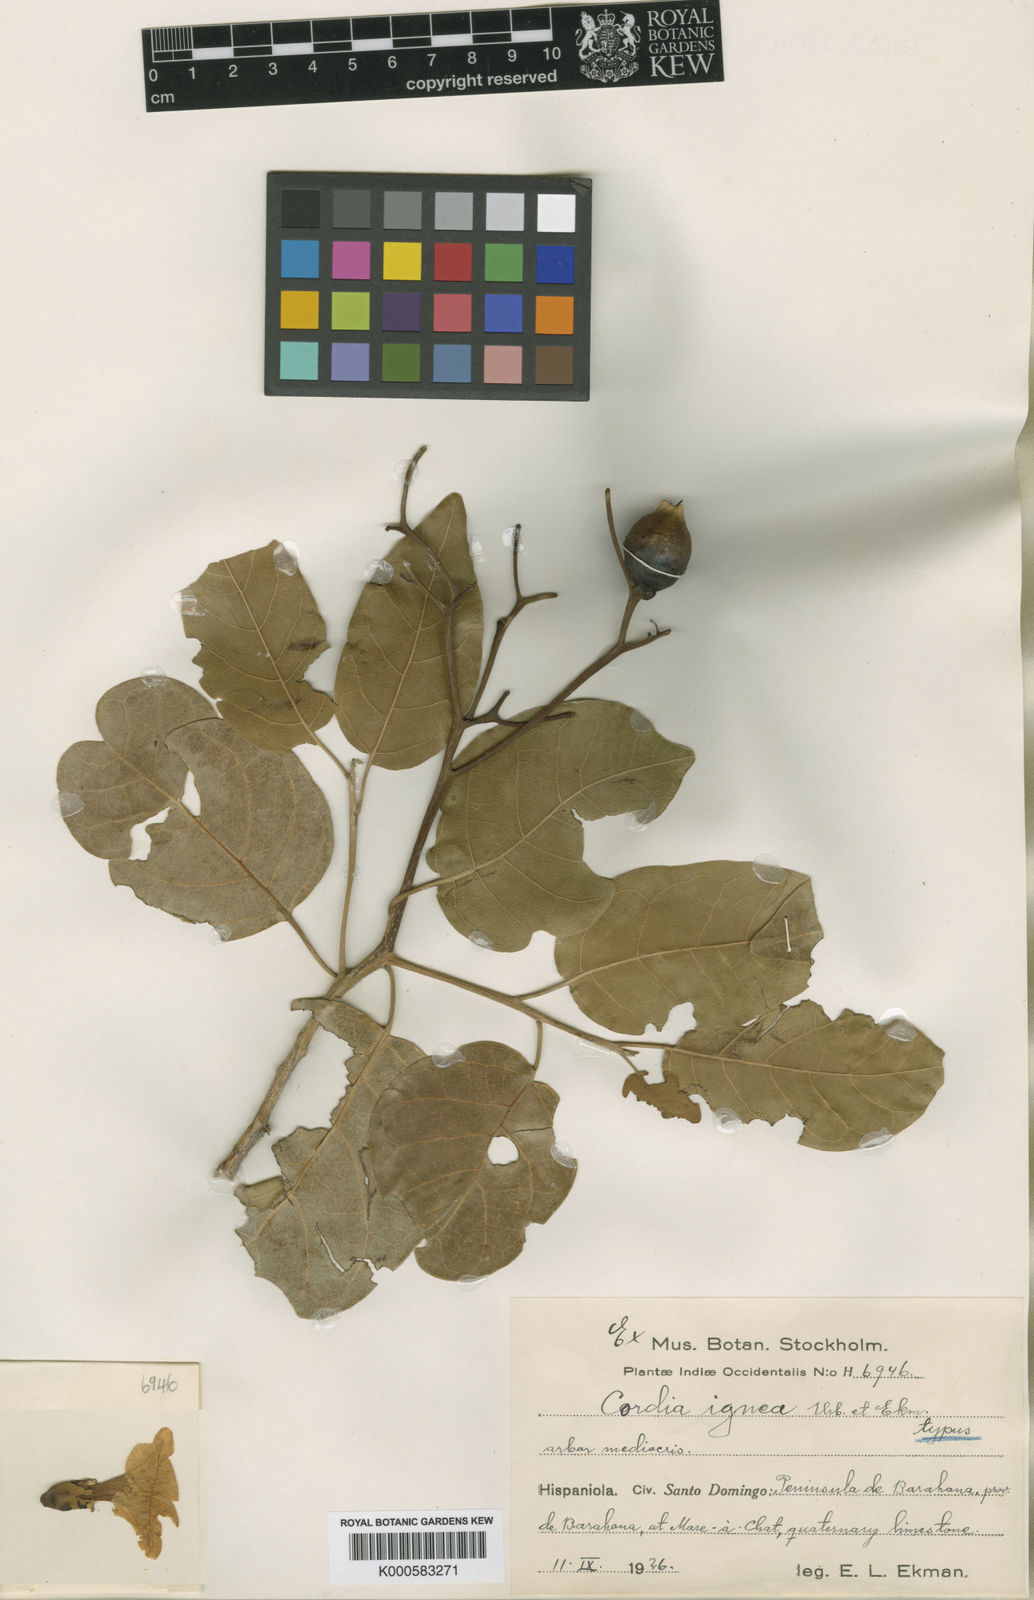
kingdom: Plantae
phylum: Tracheophyta
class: Magnoliopsida
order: Boraginales
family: Cordiaceae
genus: Cordia
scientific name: Cordia ignea
